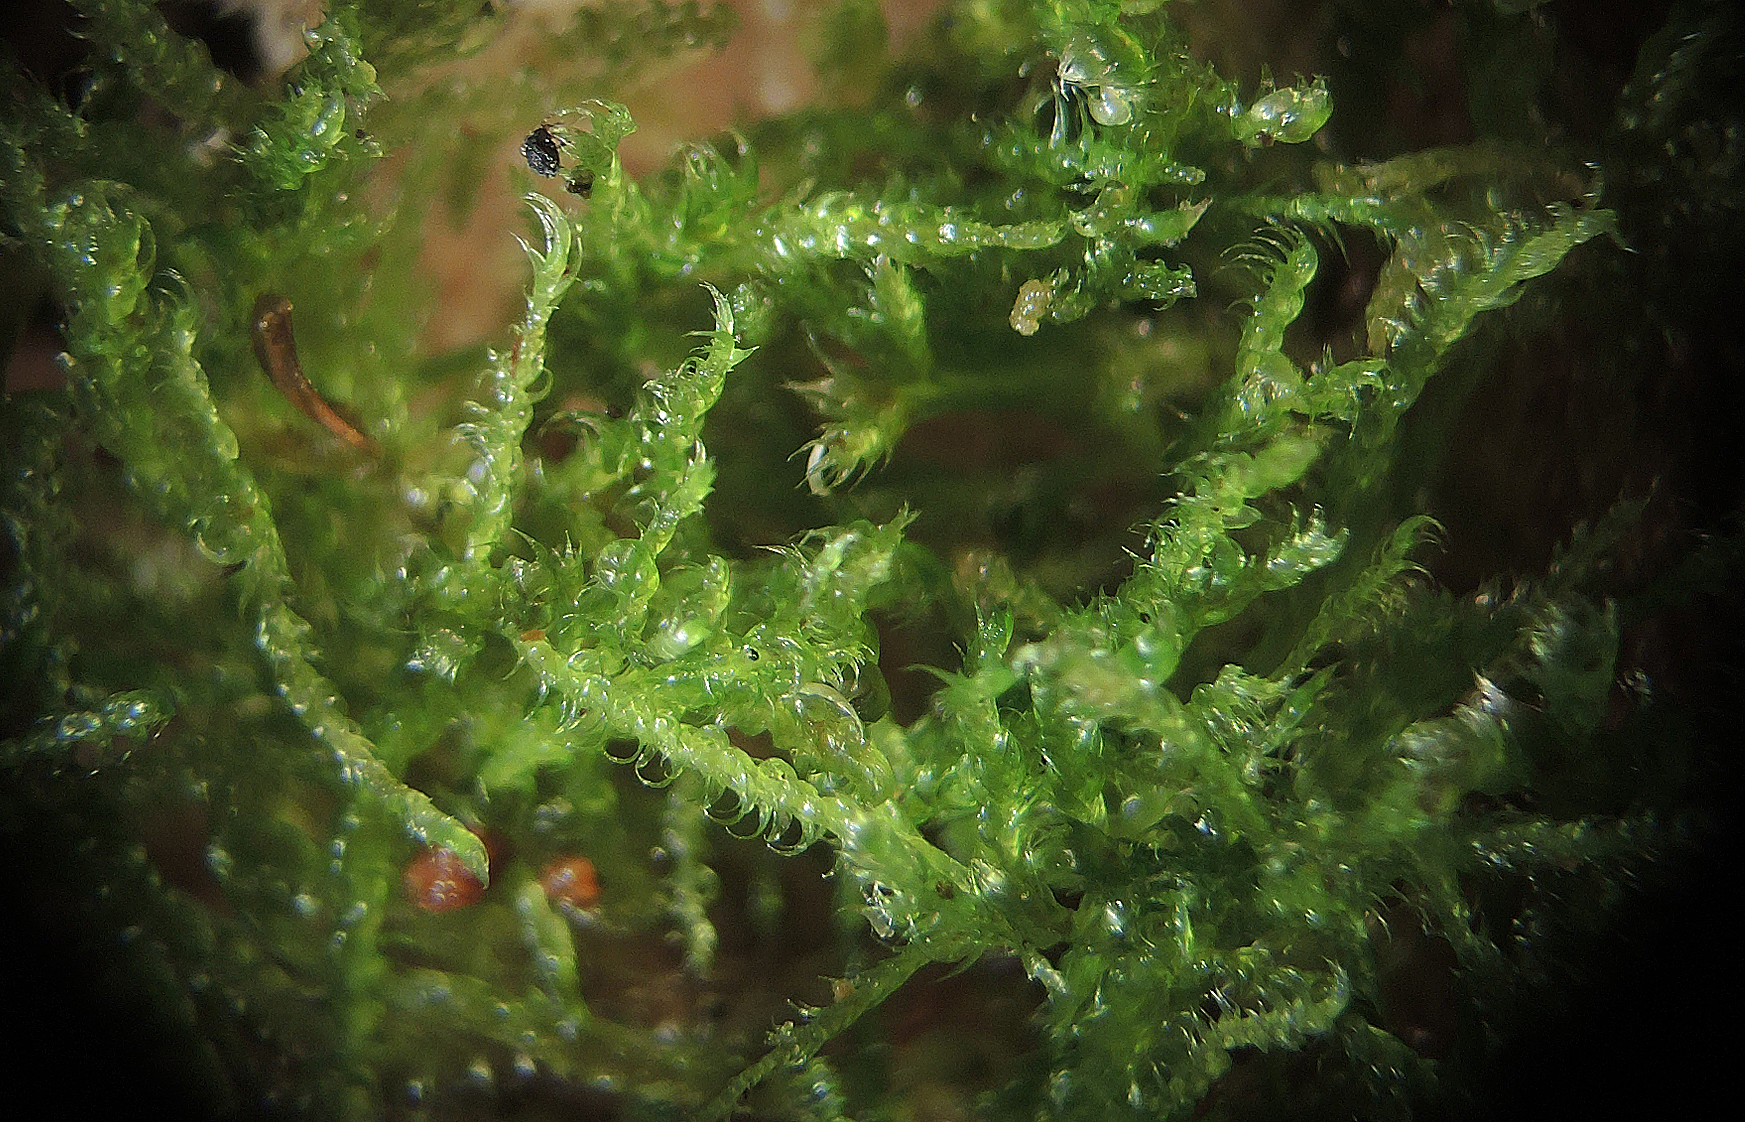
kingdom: Fungi
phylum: Ascomycota
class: Leotiomycetes
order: Helotiales
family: Helotiaceae
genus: Bryoscyphus
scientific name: Bryoscyphus phascoides
